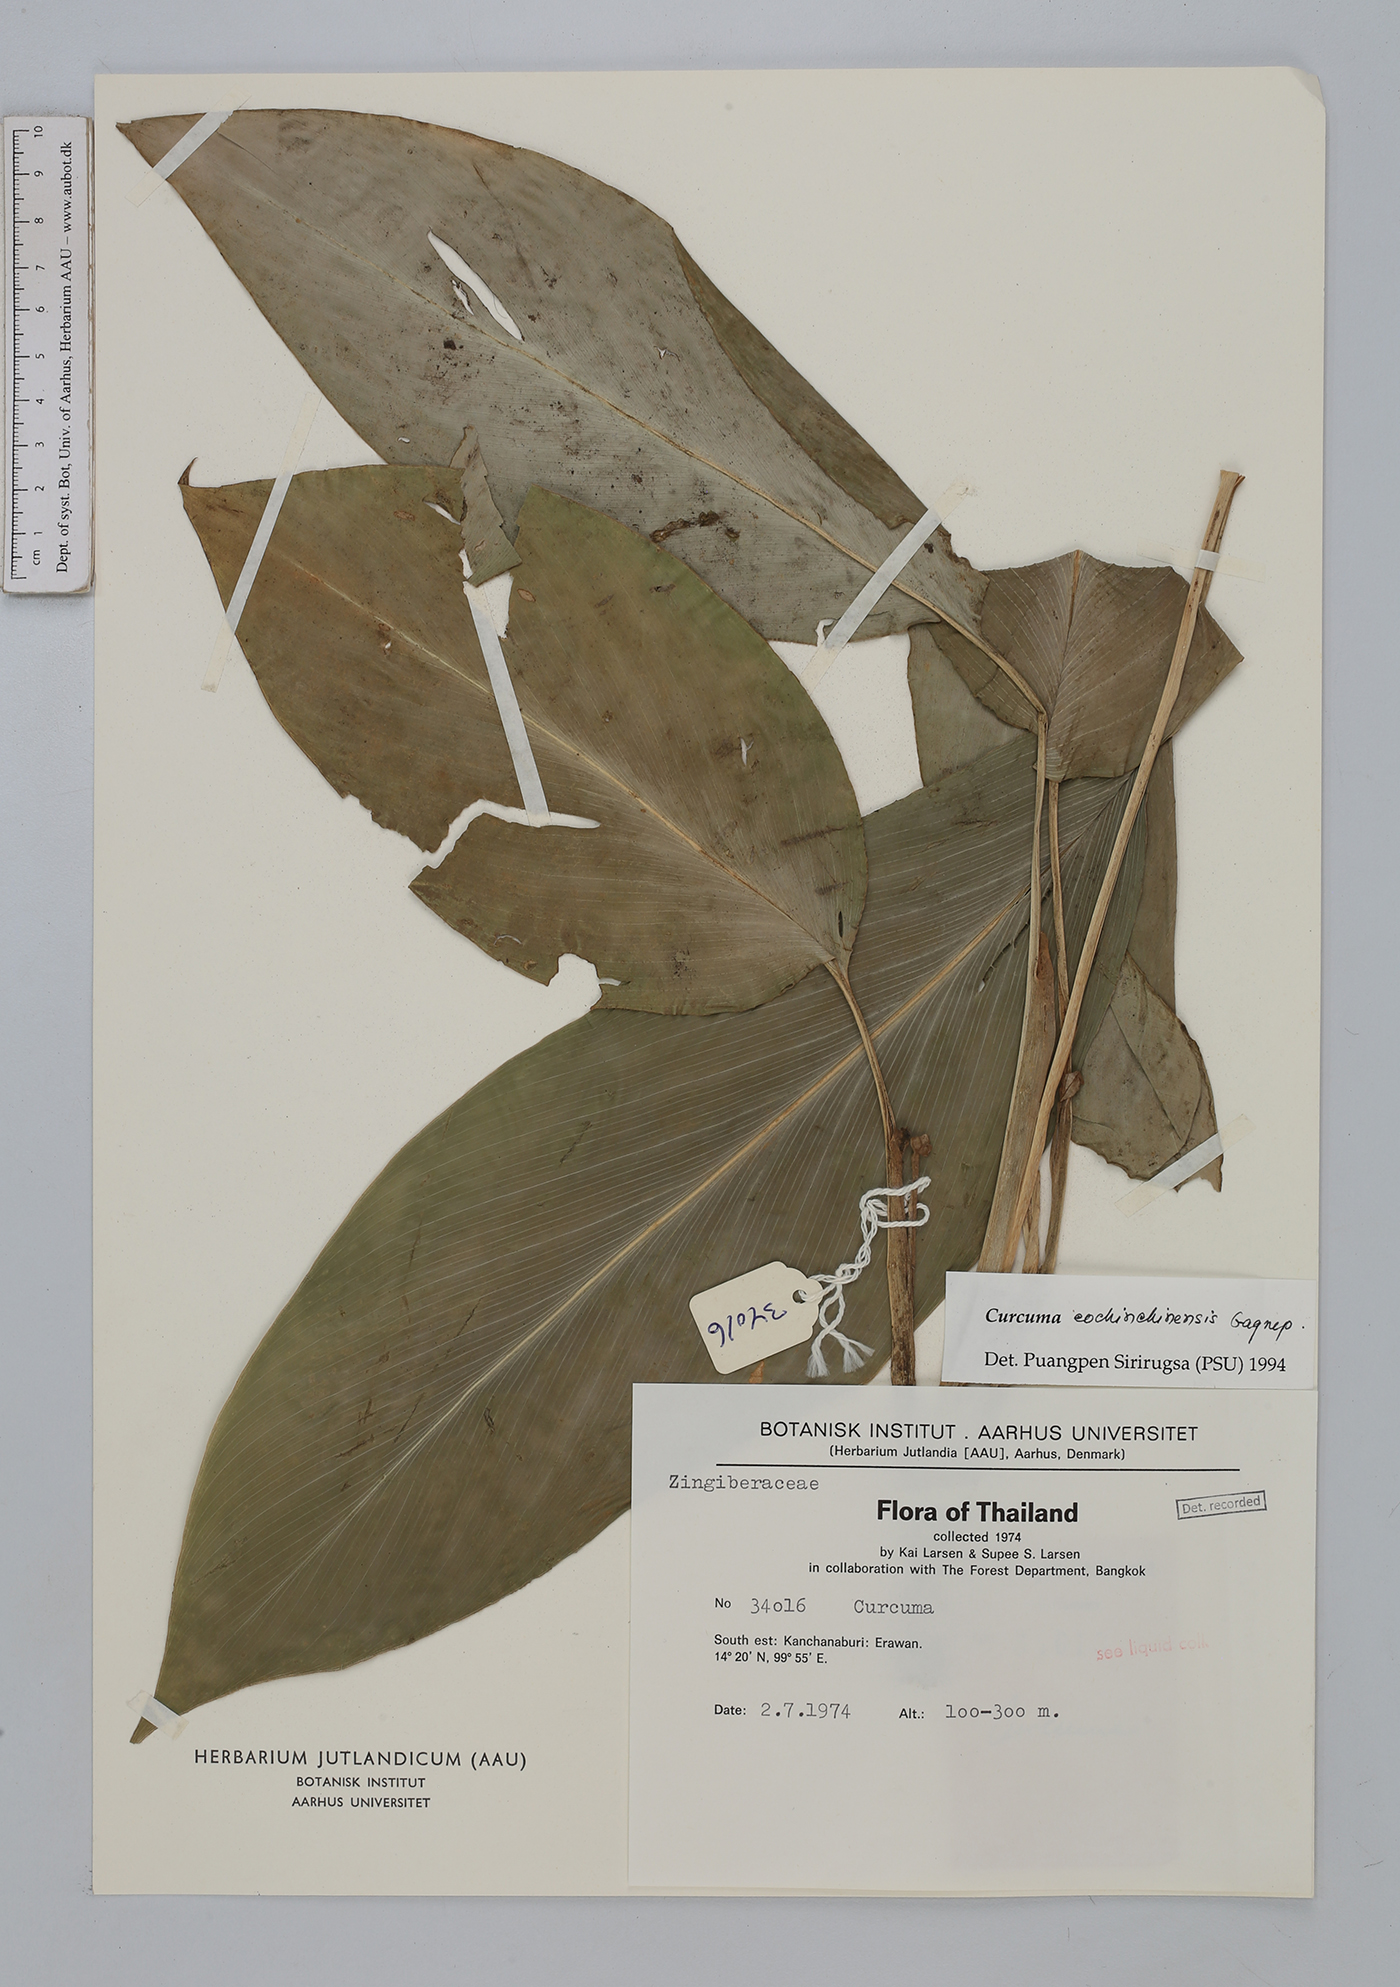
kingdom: Plantae
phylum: Tracheophyta
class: Liliopsida
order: Zingiberales
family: Zingiberaceae
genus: Curcuma
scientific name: Curcuma
